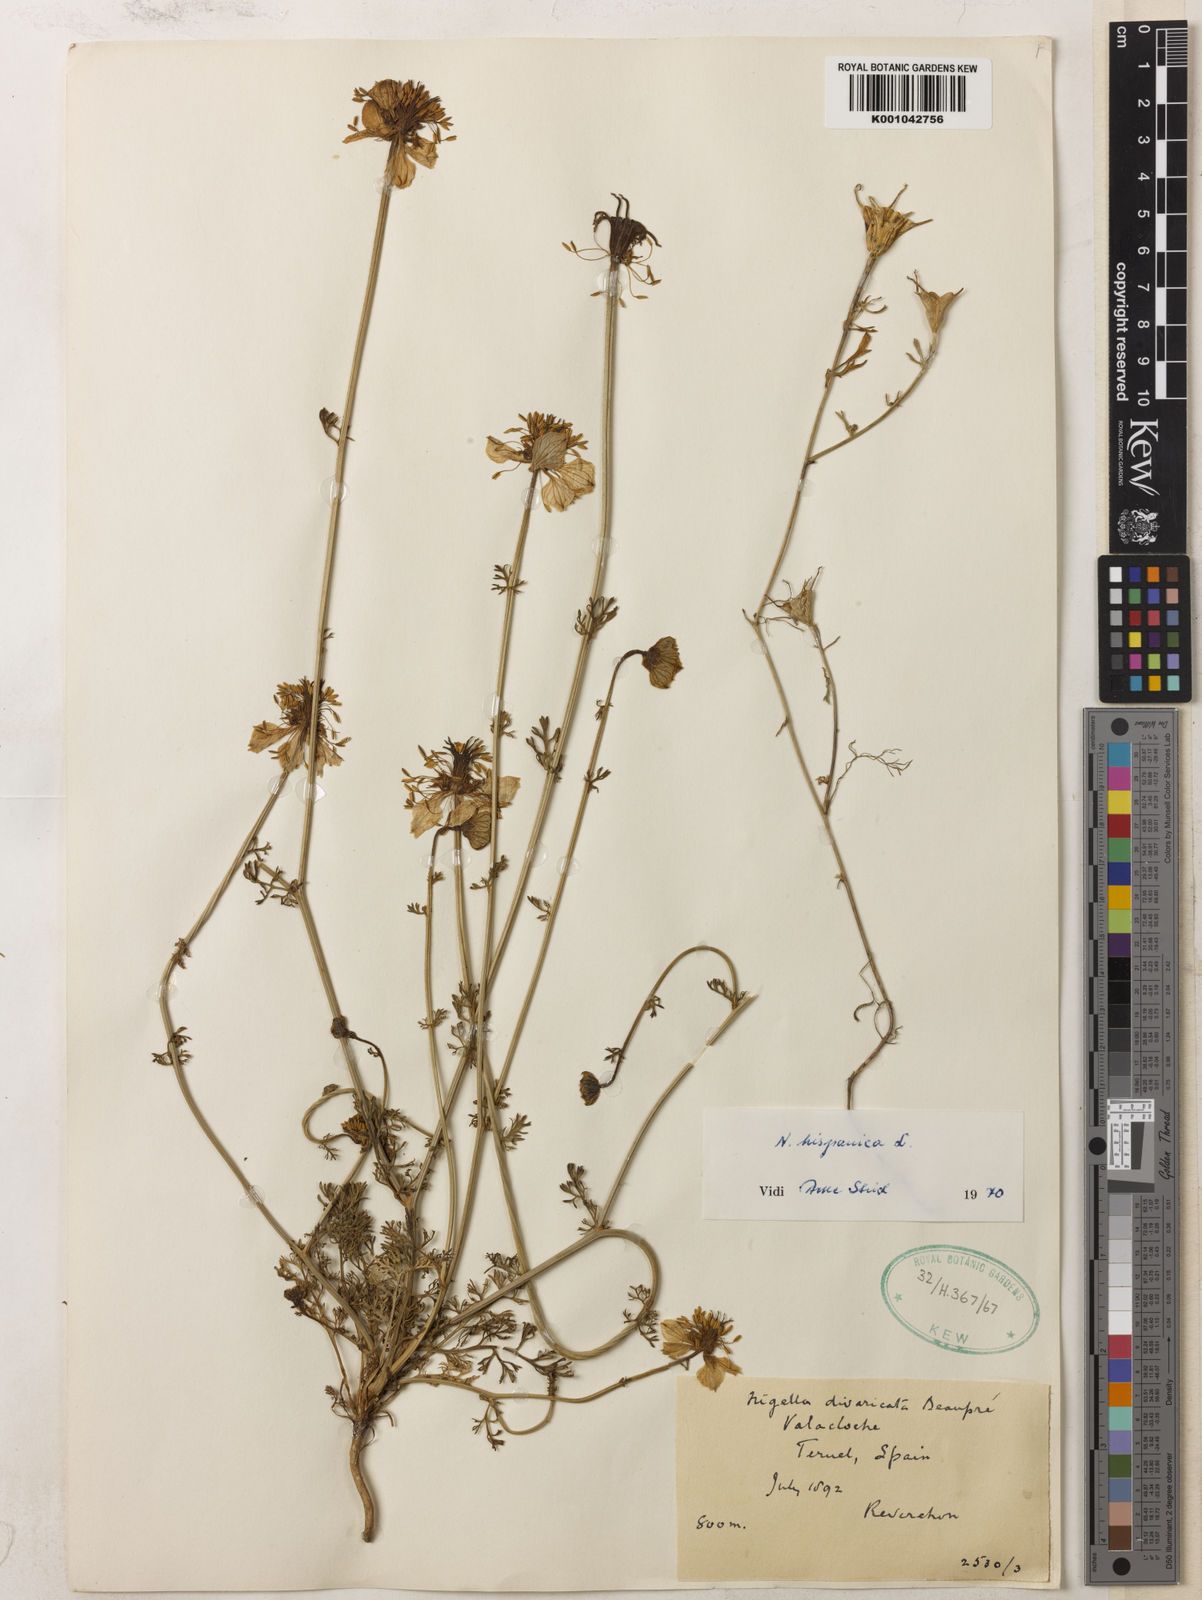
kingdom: Plantae
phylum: Tracheophyta
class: Magnoliopsida
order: Ranunculales
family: Ranunculaceae
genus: Nigella
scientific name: Nigella hispanica
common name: Fennel-flower
